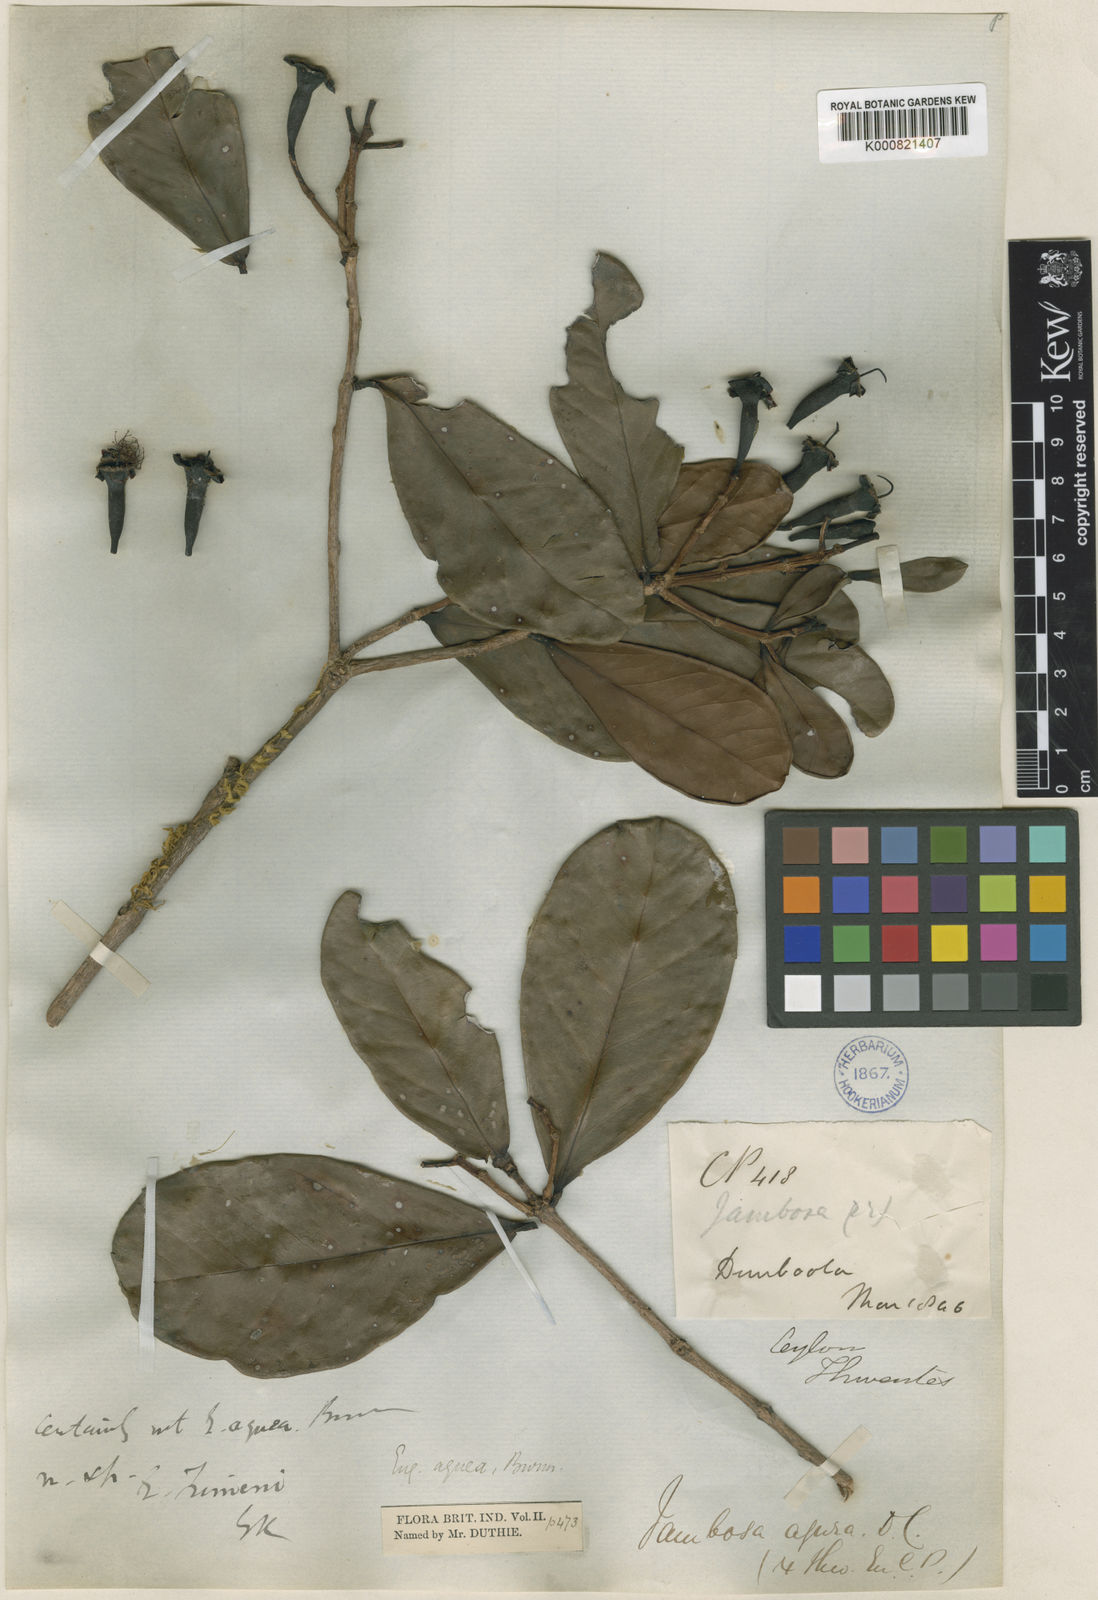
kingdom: Plantae
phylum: Tracheophyta
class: Magnoliopsida
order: Myrtales
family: Myrtaceae
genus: Syzygium
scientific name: Syzygium grande
